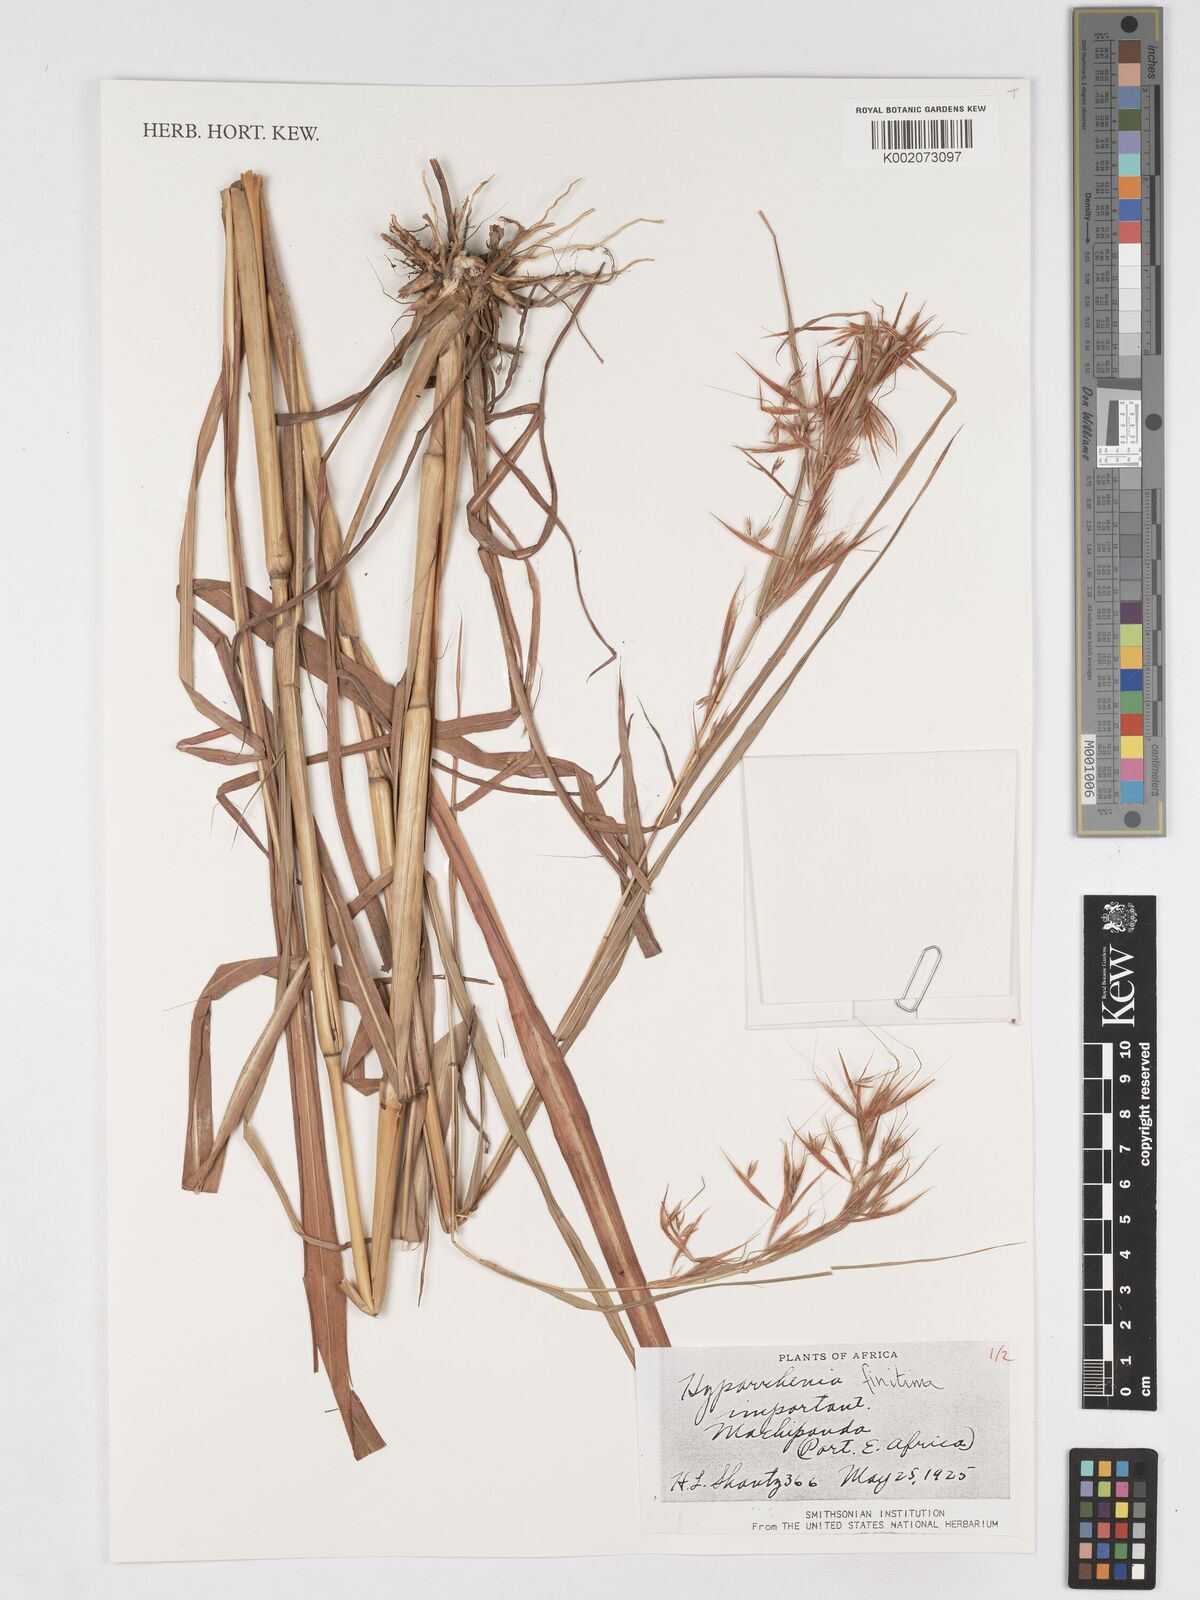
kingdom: Plantae
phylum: Tracheophyta
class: Liliopsida
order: Poales
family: Poaceae
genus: Hyparrhenia
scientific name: Hyparrhenia finitima
